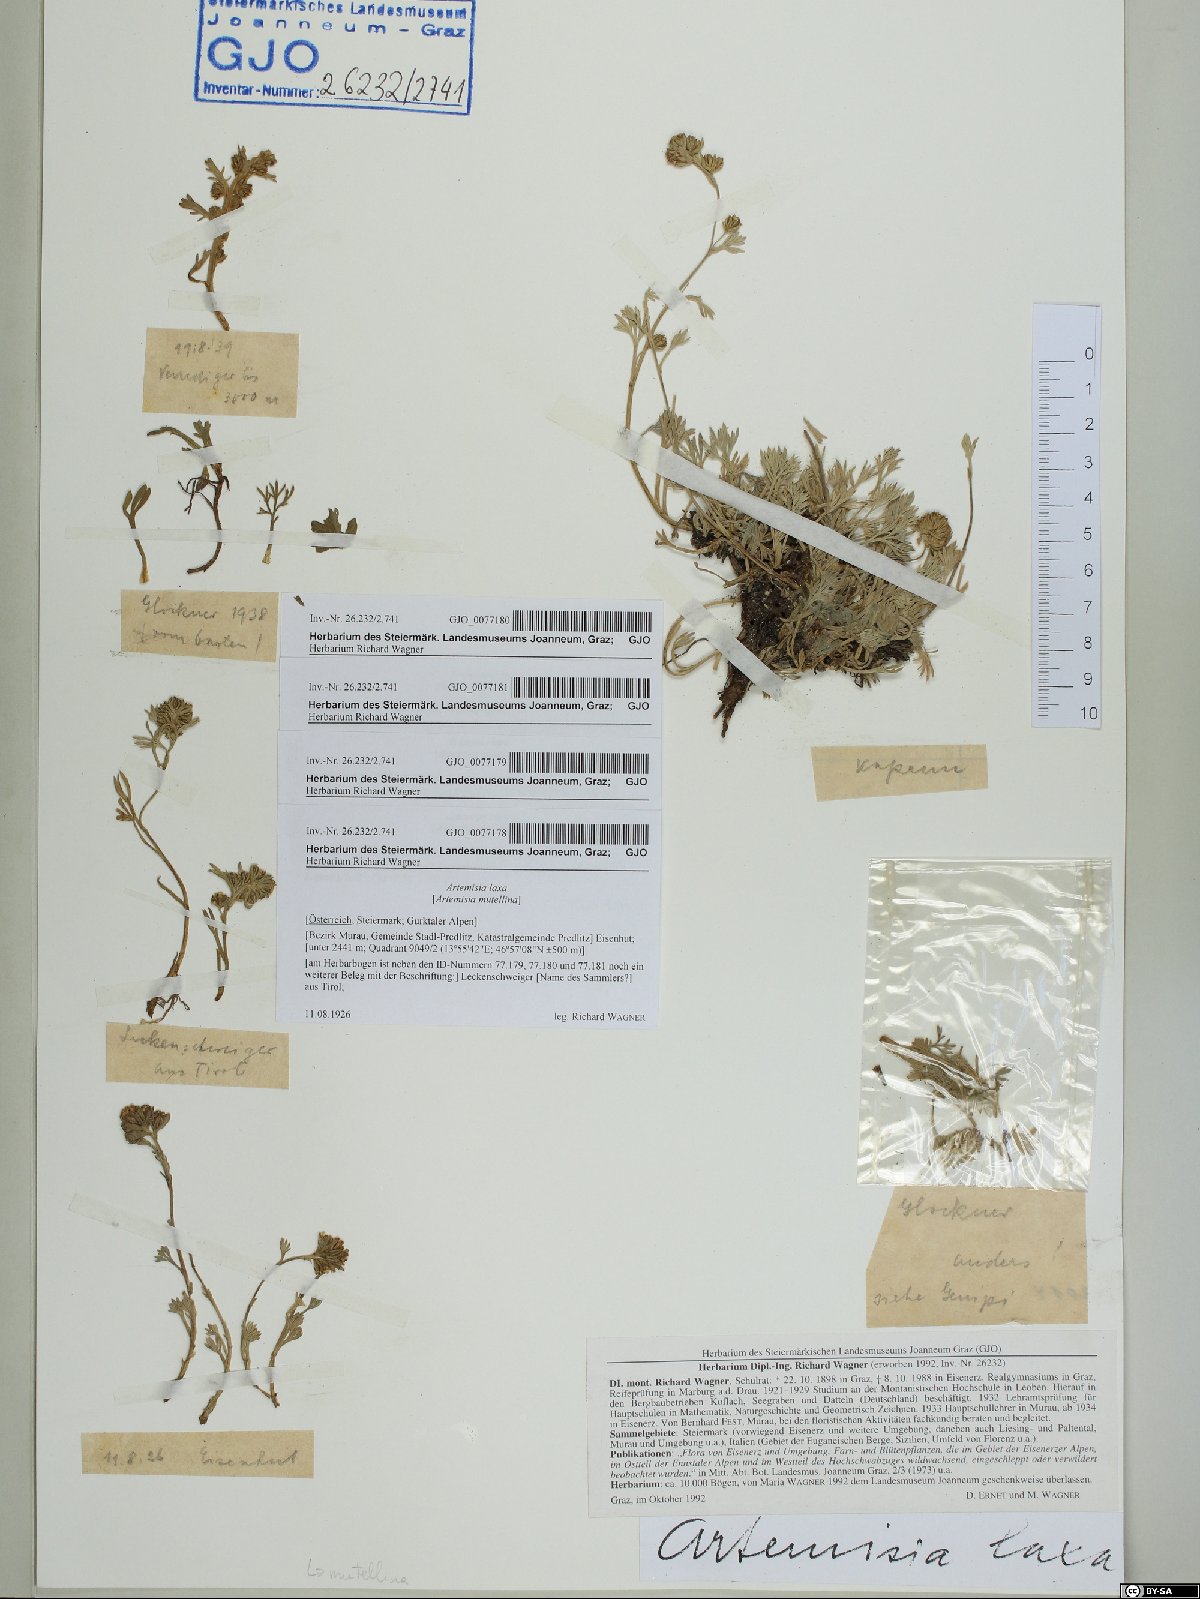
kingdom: Plantae
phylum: Tracheophyta
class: Magnoliopsida
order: Asterales
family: Asteraceae
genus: Artemisia
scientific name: Artemisia mutellina
